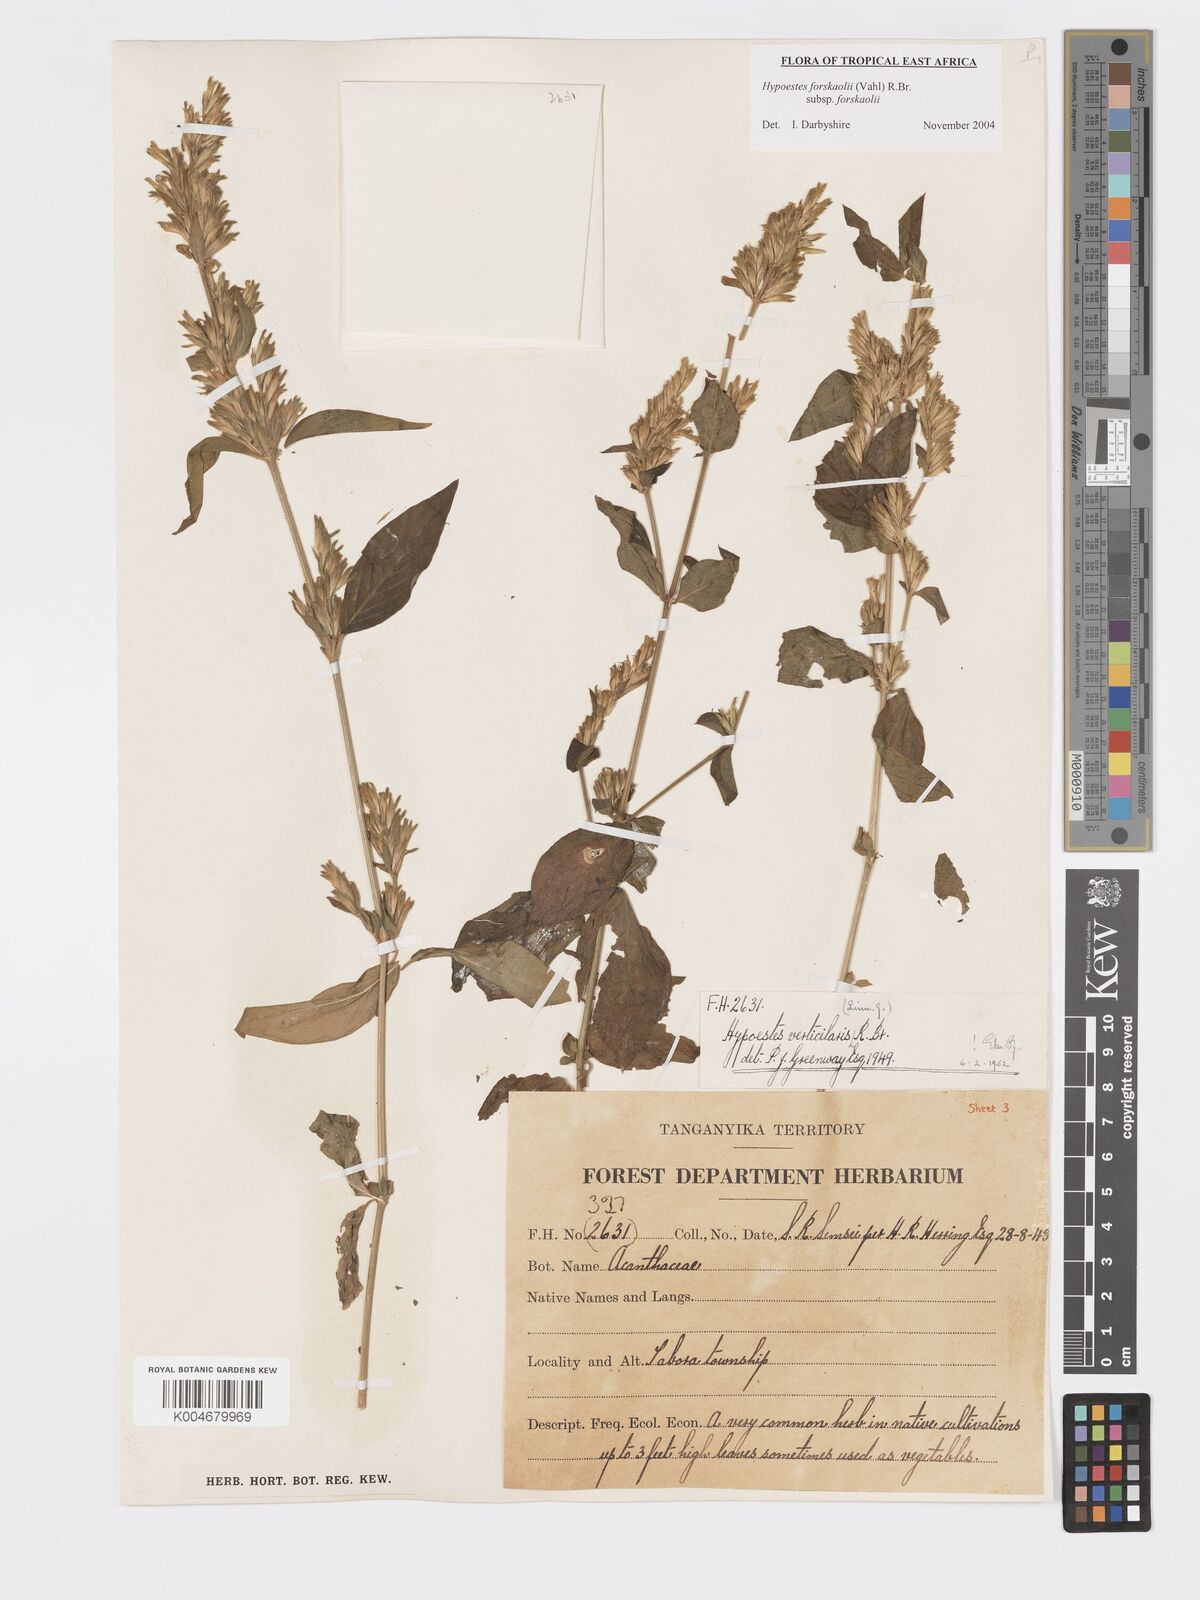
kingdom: Plantae
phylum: Tracheophyta
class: Magnoliopsida
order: Lamiales
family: Acanthaceae
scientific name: Acanthaceae
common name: Acanthaceae
